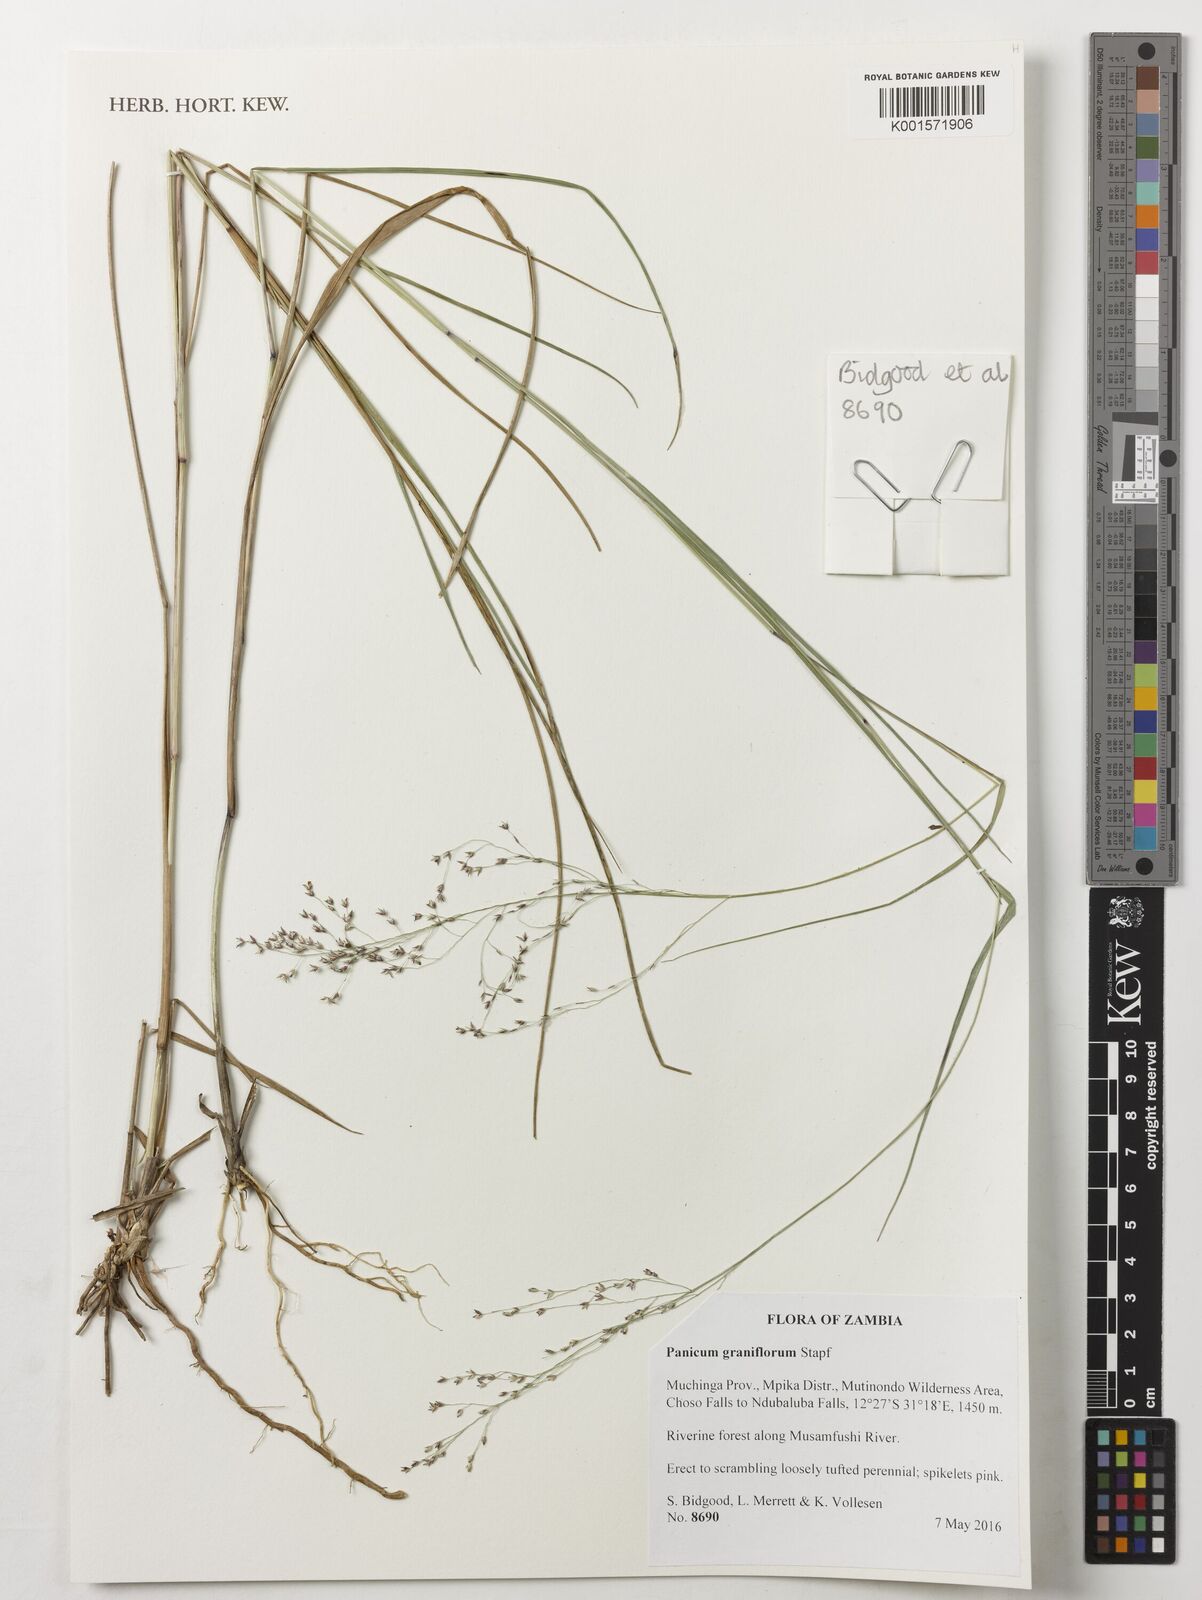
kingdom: Plantae
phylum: Tracheophyta
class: Liliopsida
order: Poales
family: Poaceae
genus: Panicum
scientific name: Panicum graniflorum
